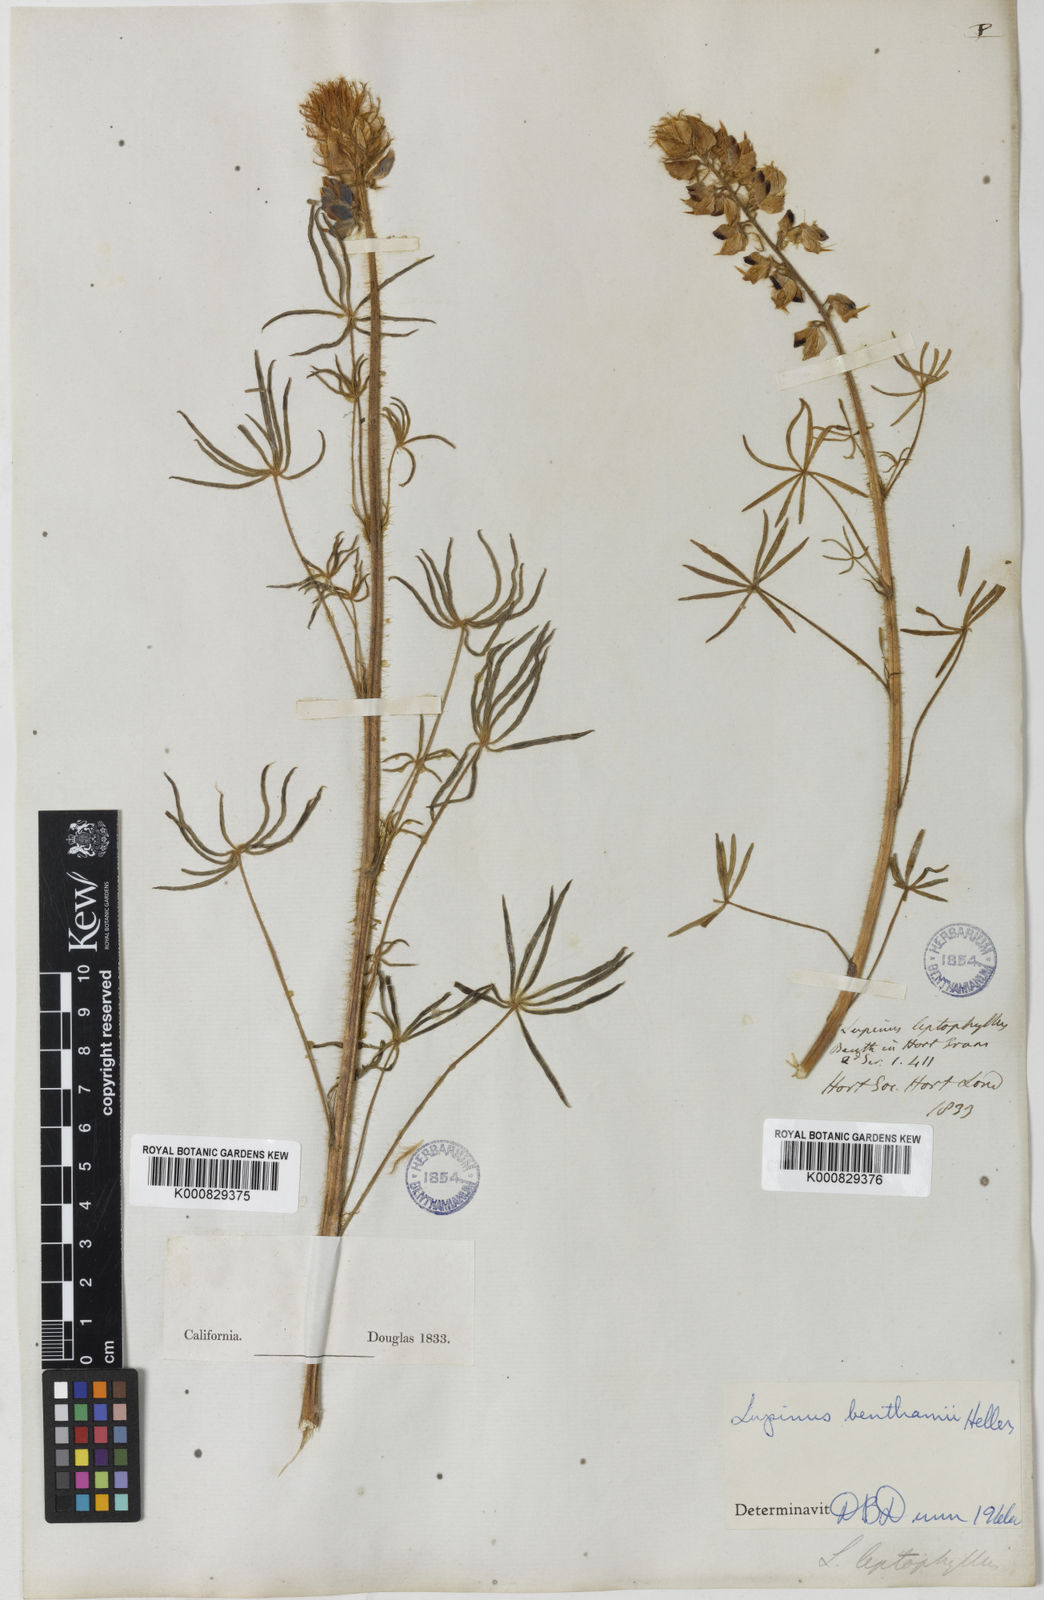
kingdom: Plantae
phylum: Tracheophyta
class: Magnoliopsida
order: Fabales
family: Fabaceae
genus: Lupinus
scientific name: Lupinus benthamii
